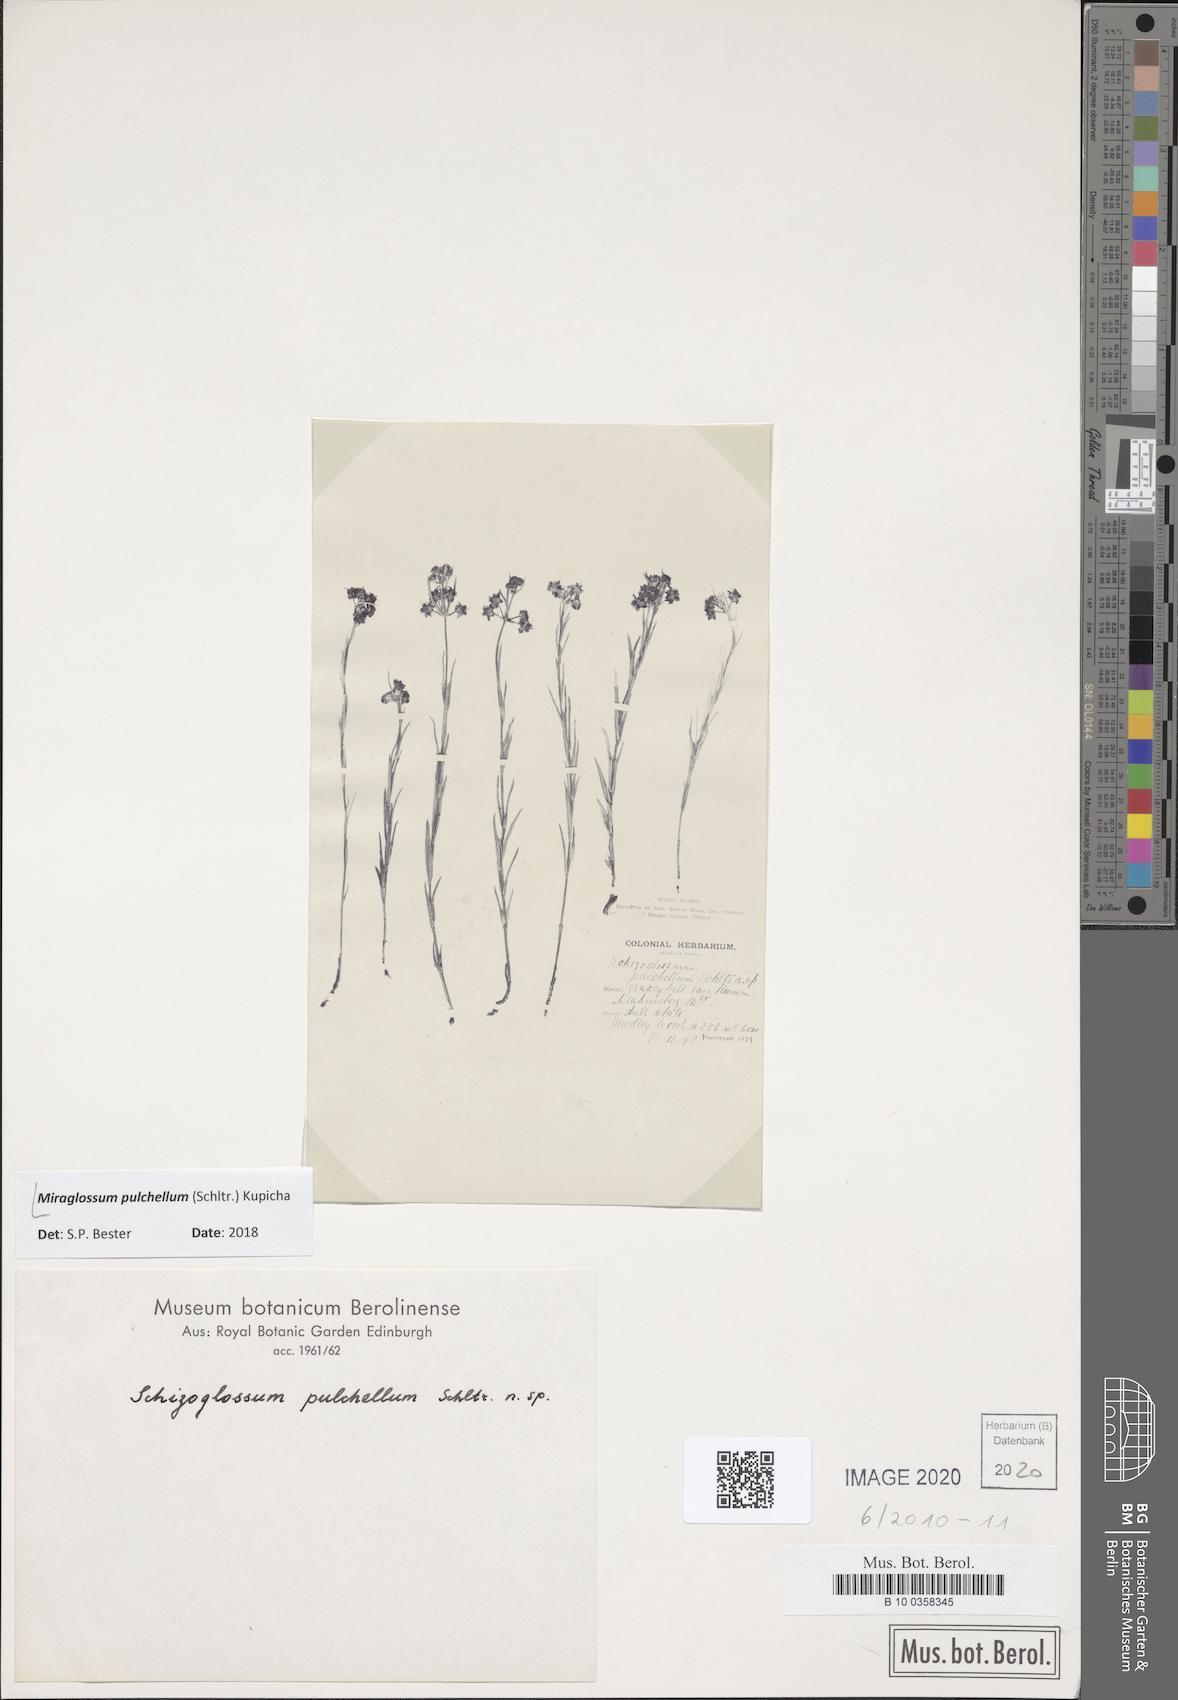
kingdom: Plantae
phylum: Tracheophyta
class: Magnoliopsida
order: Gentianales
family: Apocynaceae
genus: Miraglossum
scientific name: Miraglossum pulchellum
